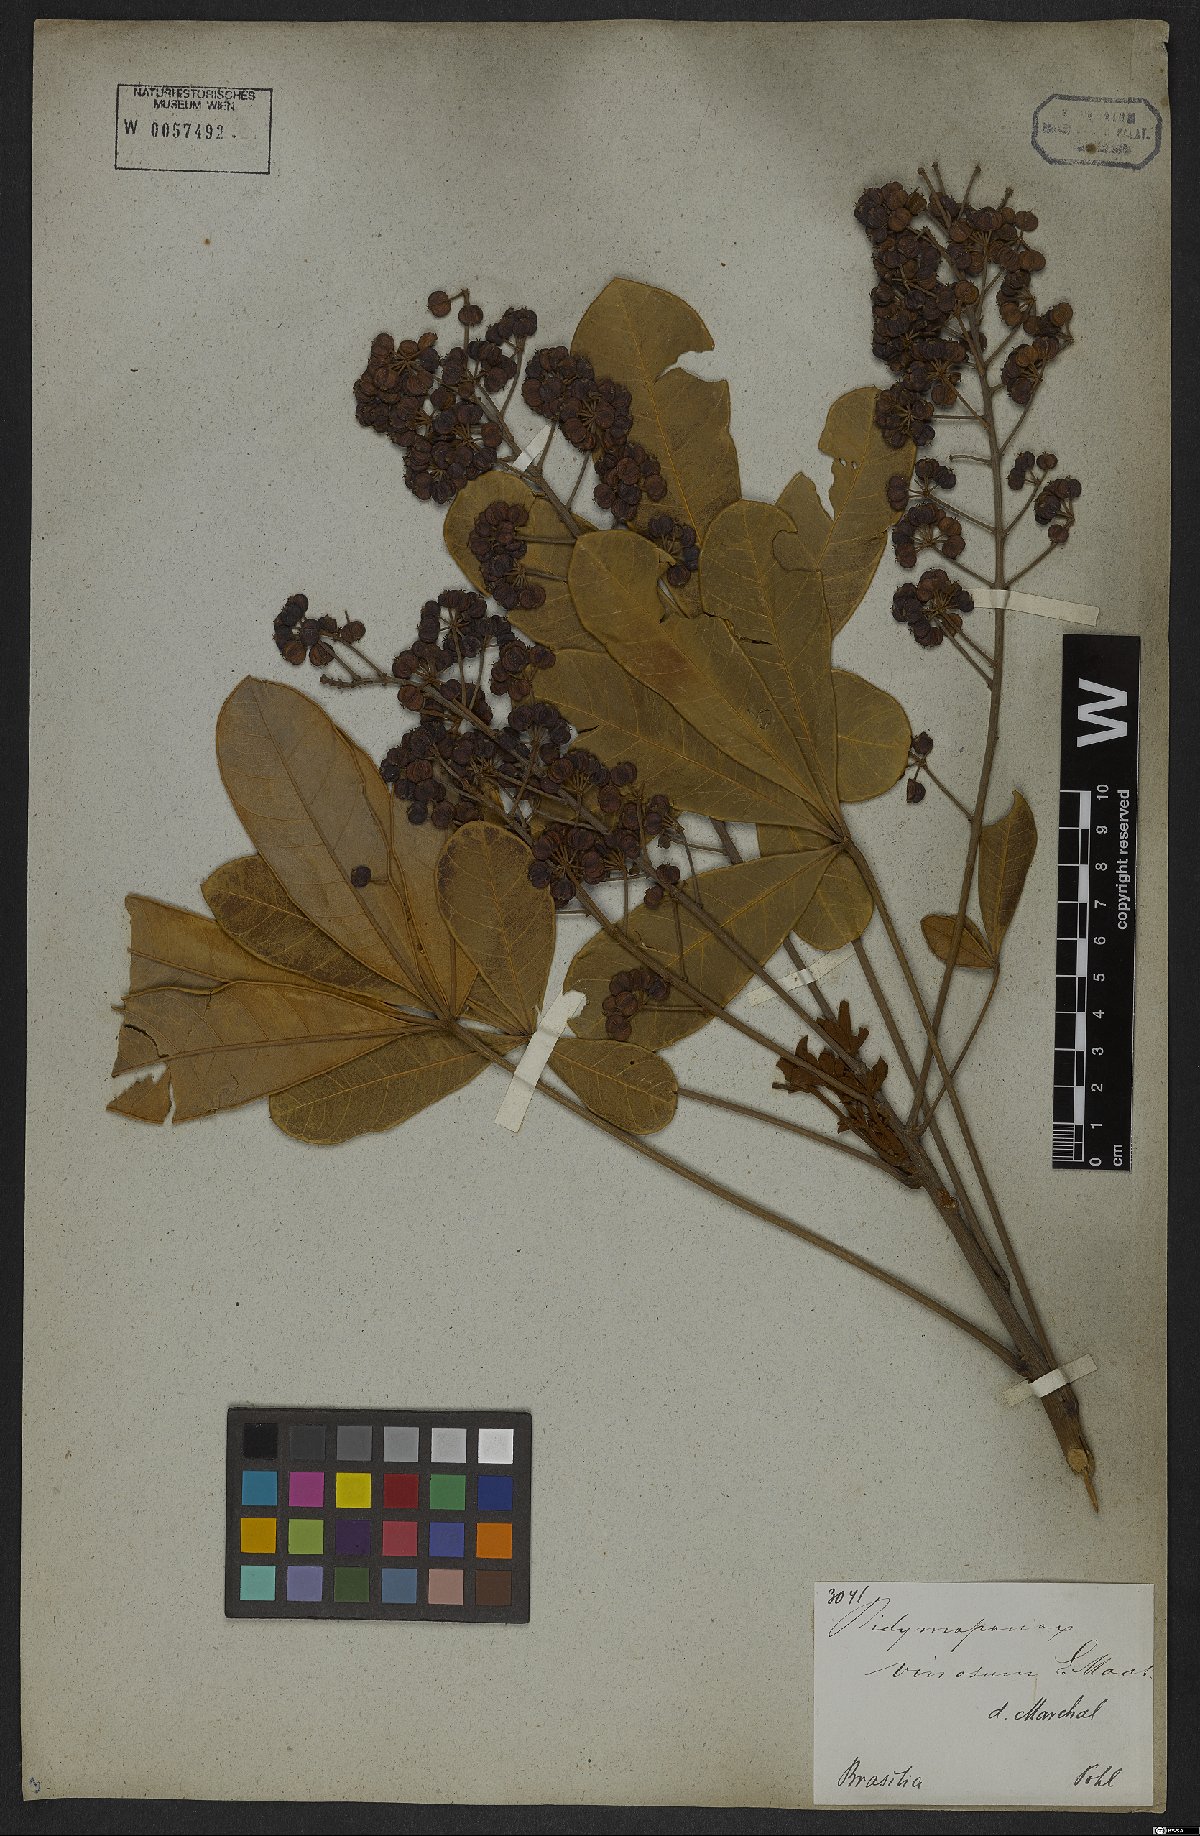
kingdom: Plantae
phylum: Tracheophyta
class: Magnoliopsida
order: Apiales
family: Araliaceae
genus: Didymopanax
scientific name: Didymopanax vinosus
